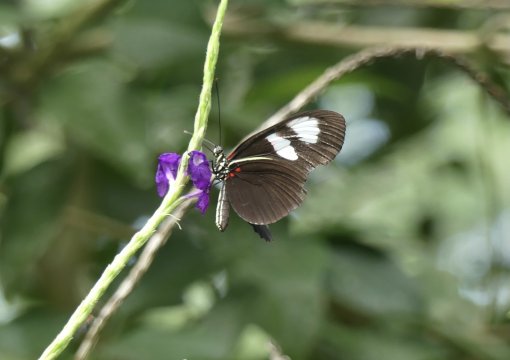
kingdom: Animalia
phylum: Arthropoda
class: Insecta
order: Lepidoptera
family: Nymphalidae
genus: Heliconius
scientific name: Heliconius erato
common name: Erato Heliconian
